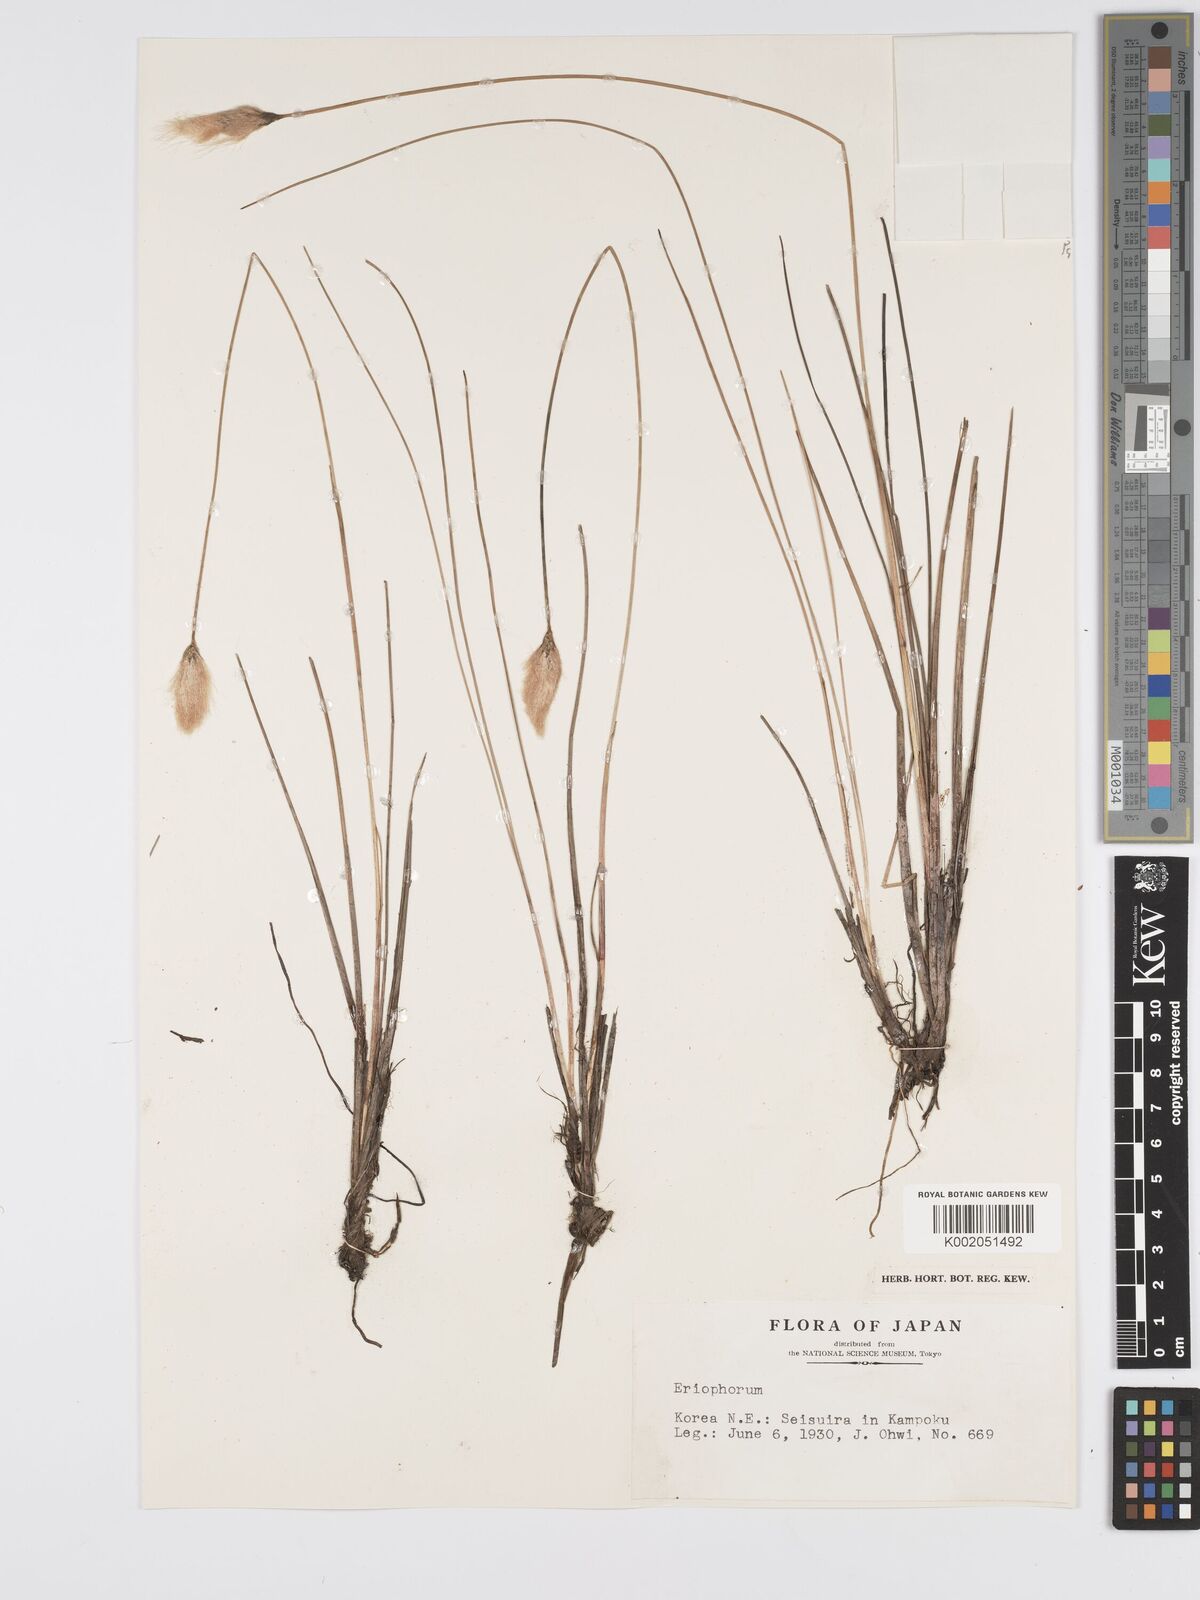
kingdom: Plantae
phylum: Tracheophyta
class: Liliopsida
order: Poales
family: Cyperaceae
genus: Eriophorum
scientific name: Eriophorum
